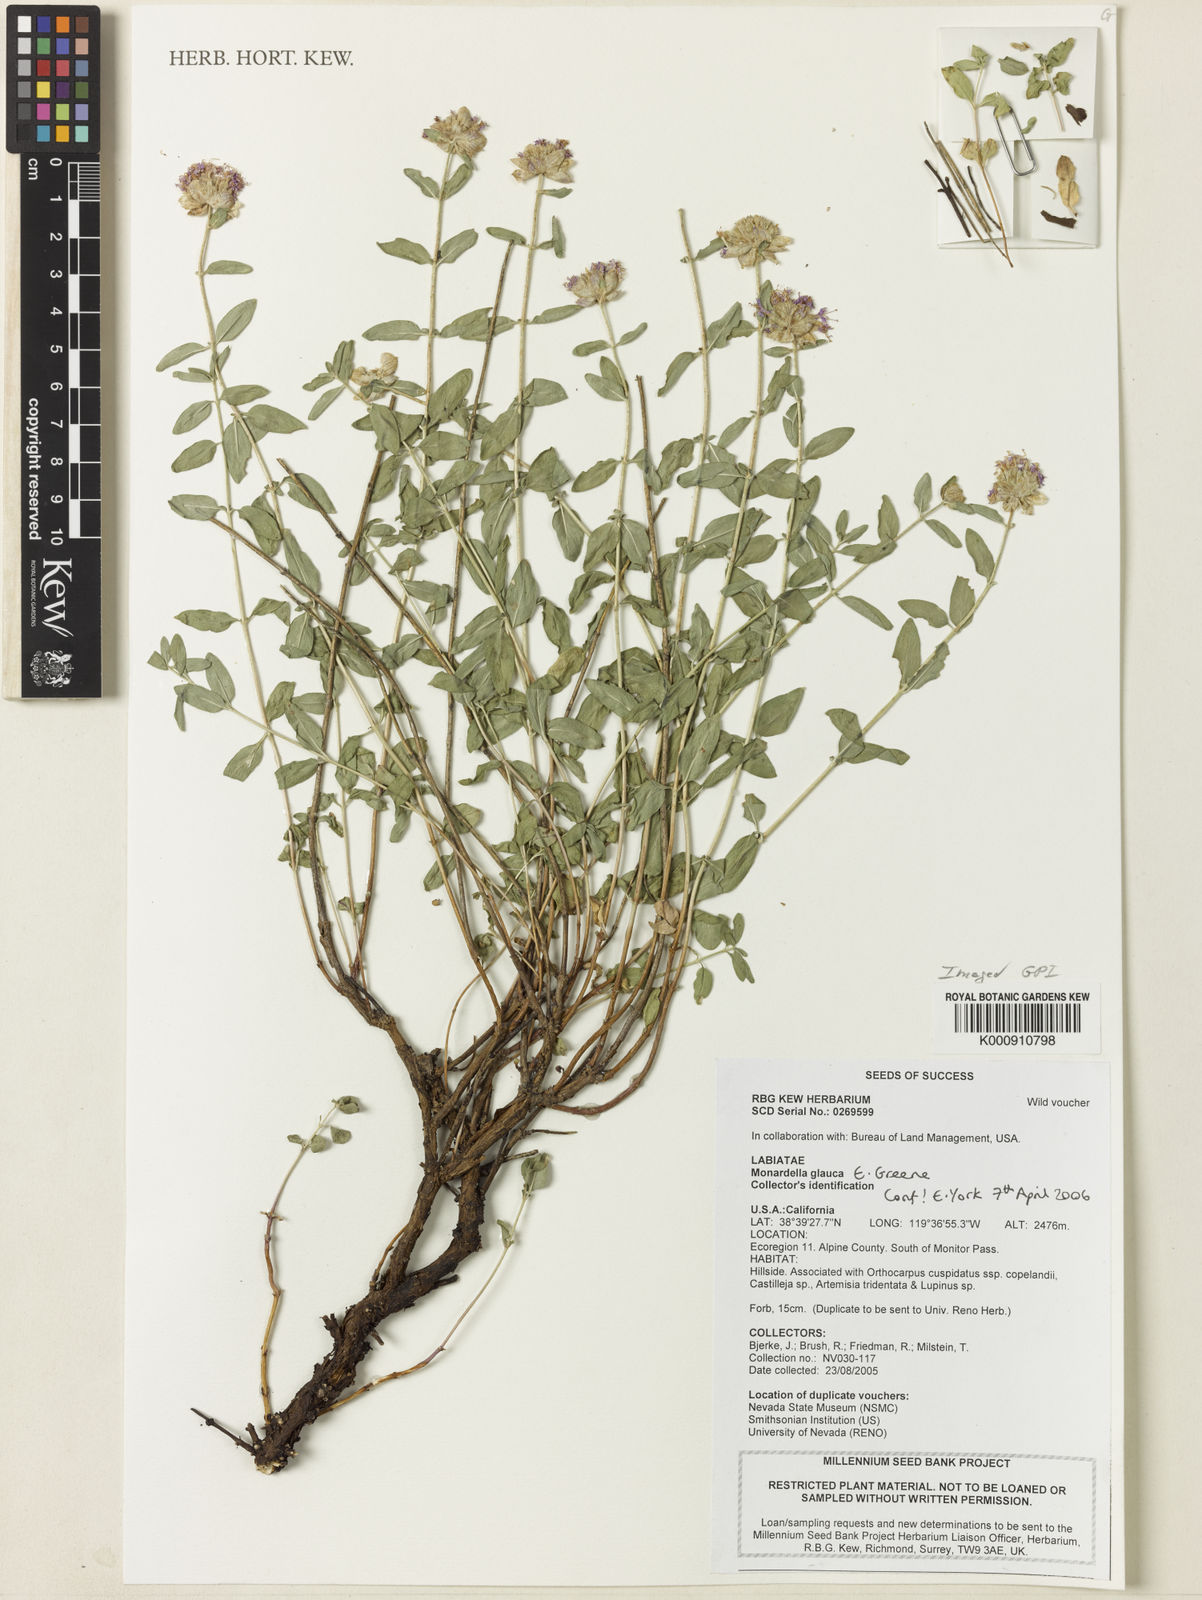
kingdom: Plantae
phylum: Tracheophyta
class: Magnoliopsida
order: Lamiales
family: Lamiaceae
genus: Monardella
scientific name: Monardella odoratissima
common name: Pacific monardella
